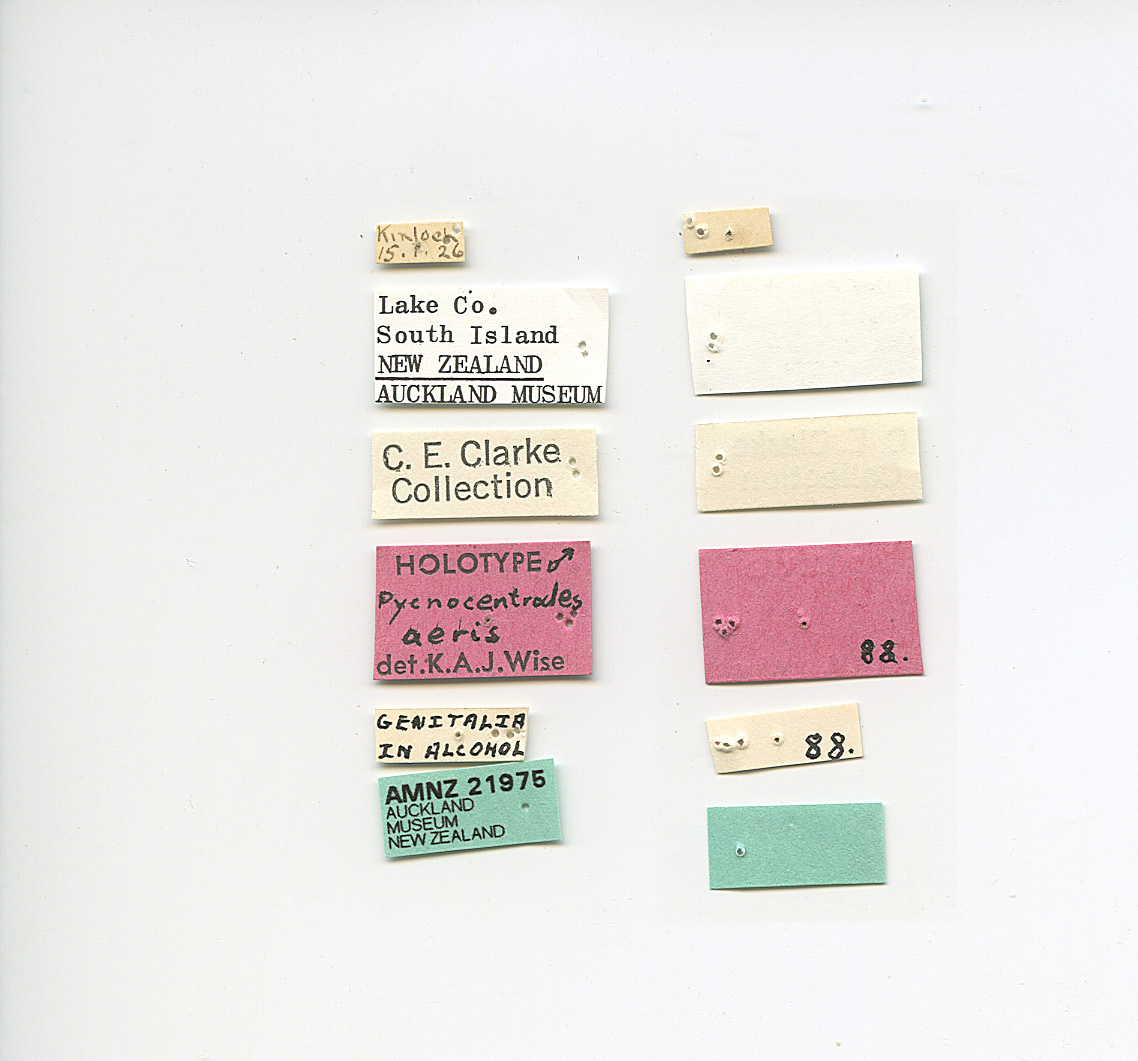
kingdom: Animalia
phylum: Arthropoda
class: Insecta
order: Trichoptera
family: Conoesucidae
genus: Pycnocentrodes
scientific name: Pycnocentrodes aeris
